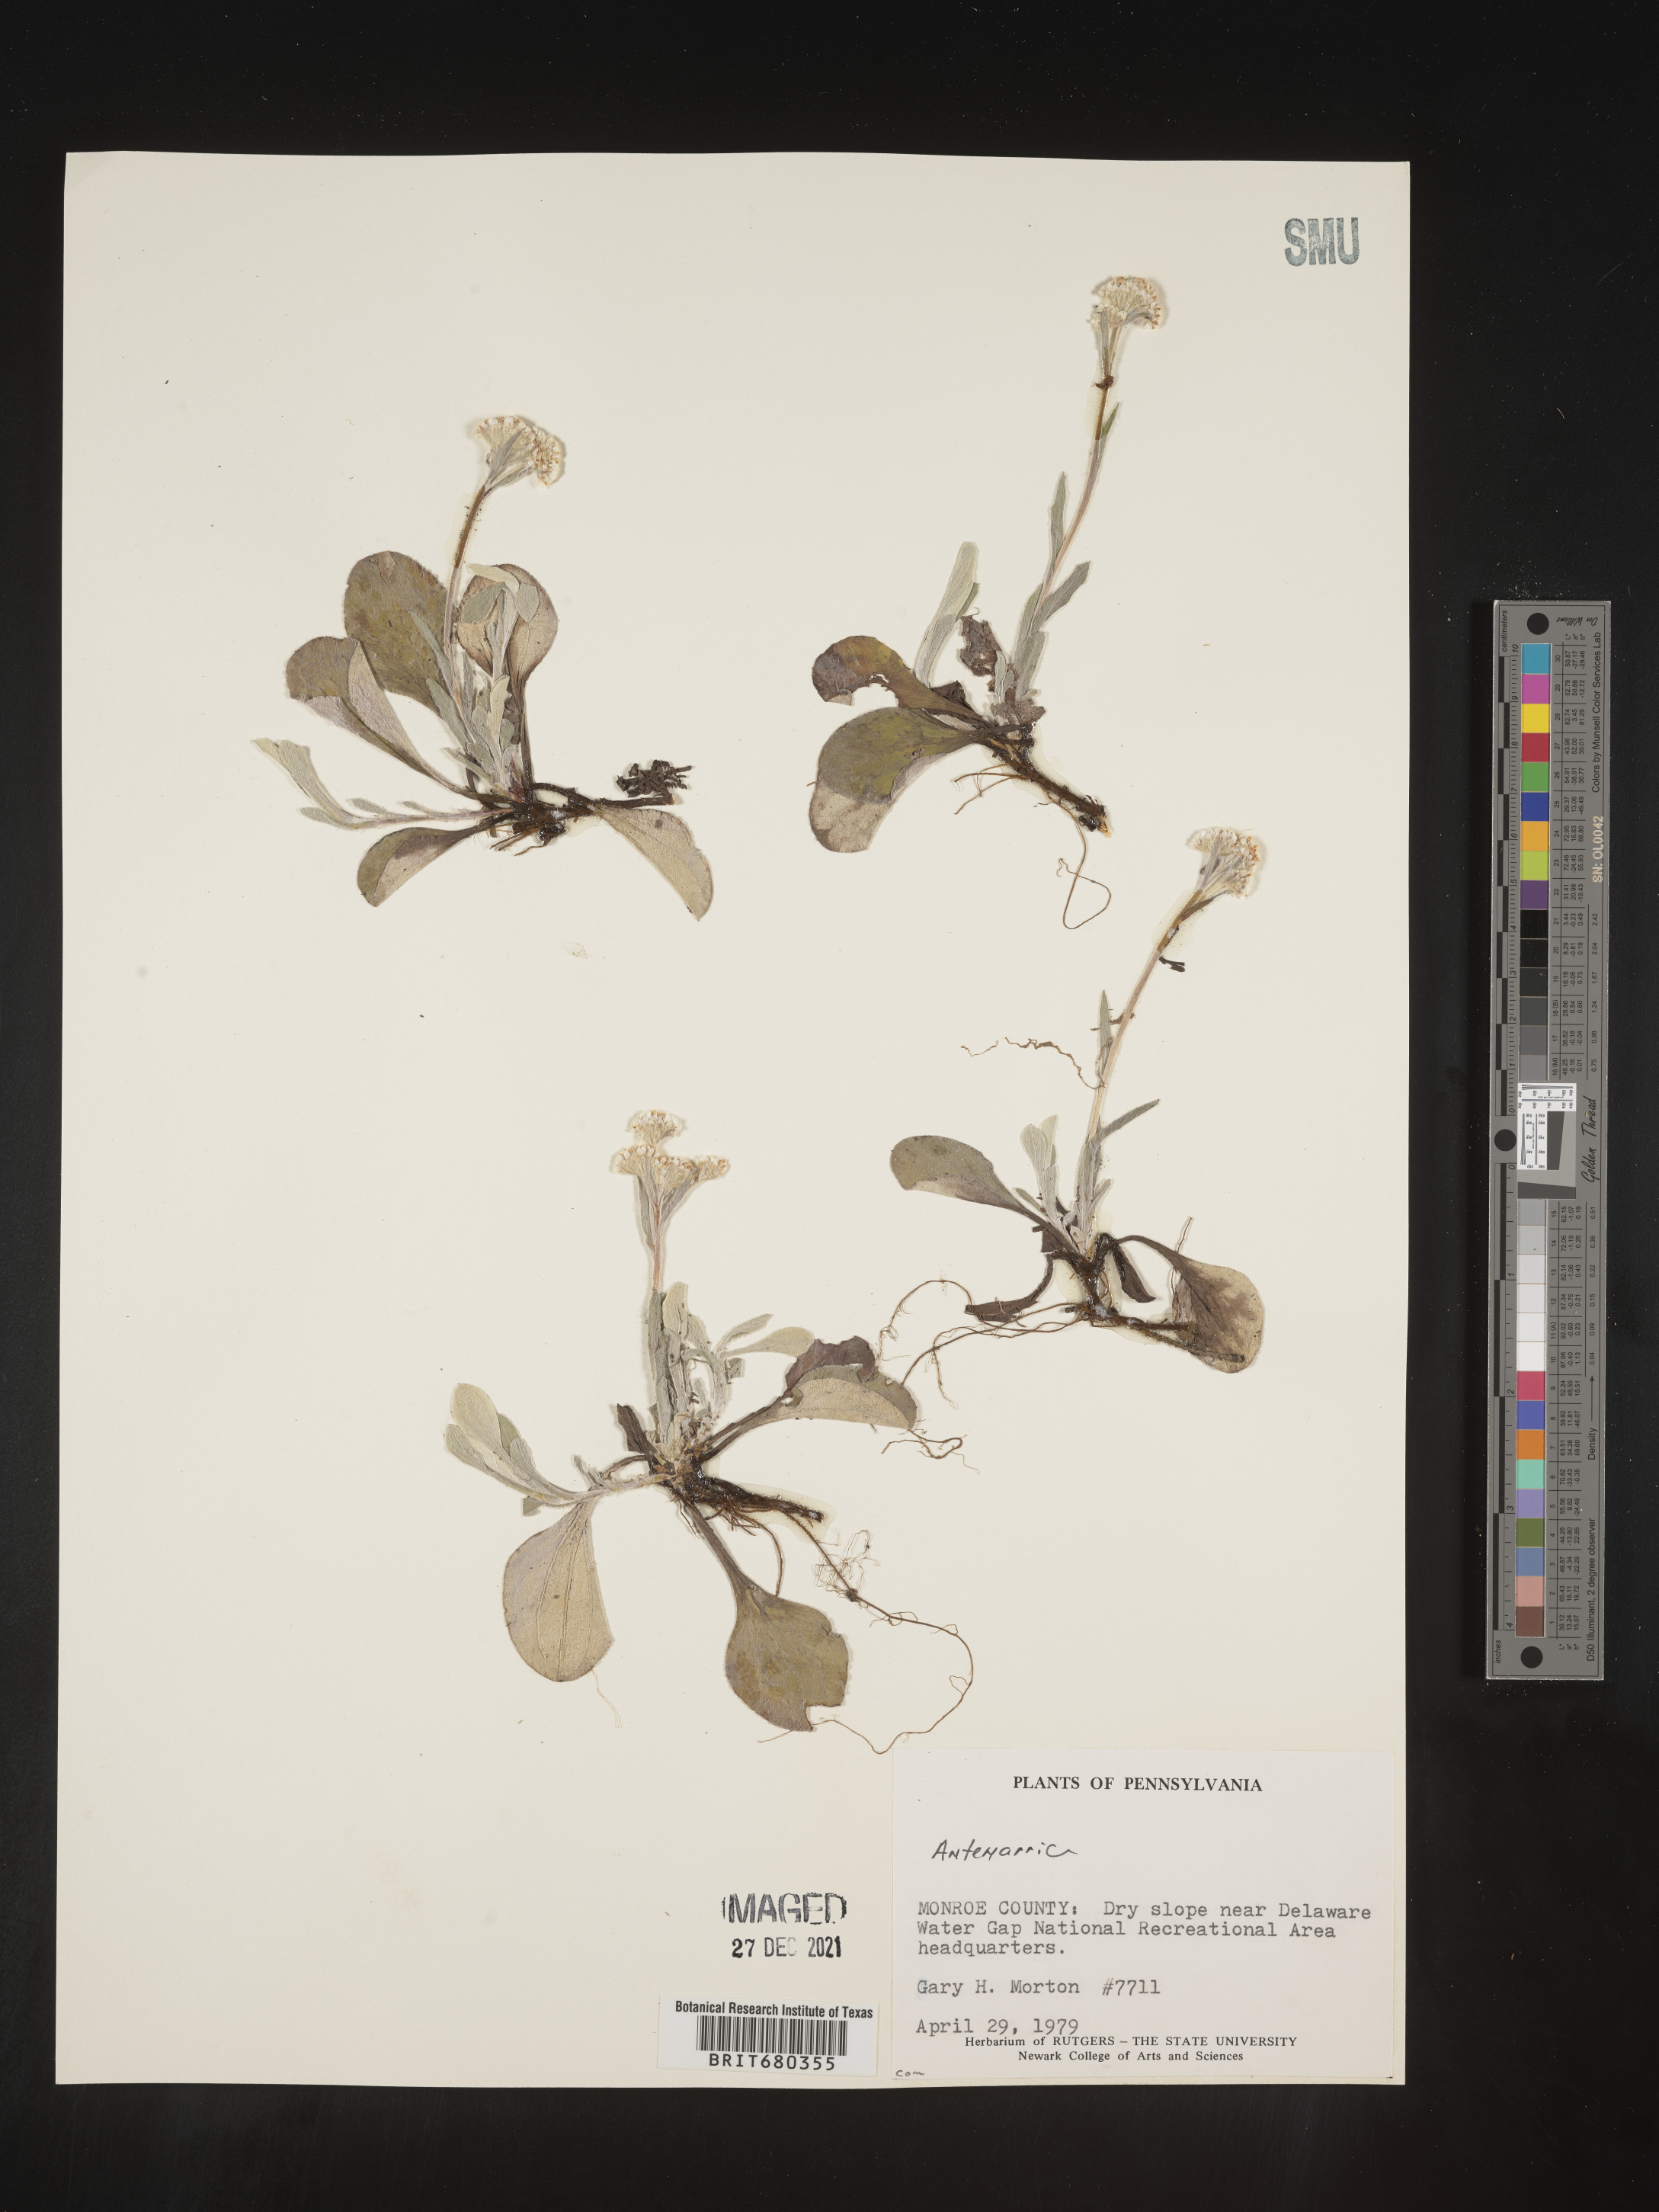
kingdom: Plantae
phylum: Tracheophyta
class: Magnoliopsida
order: Asterales
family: Asteraceae
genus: Antennaria
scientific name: Antennaria
